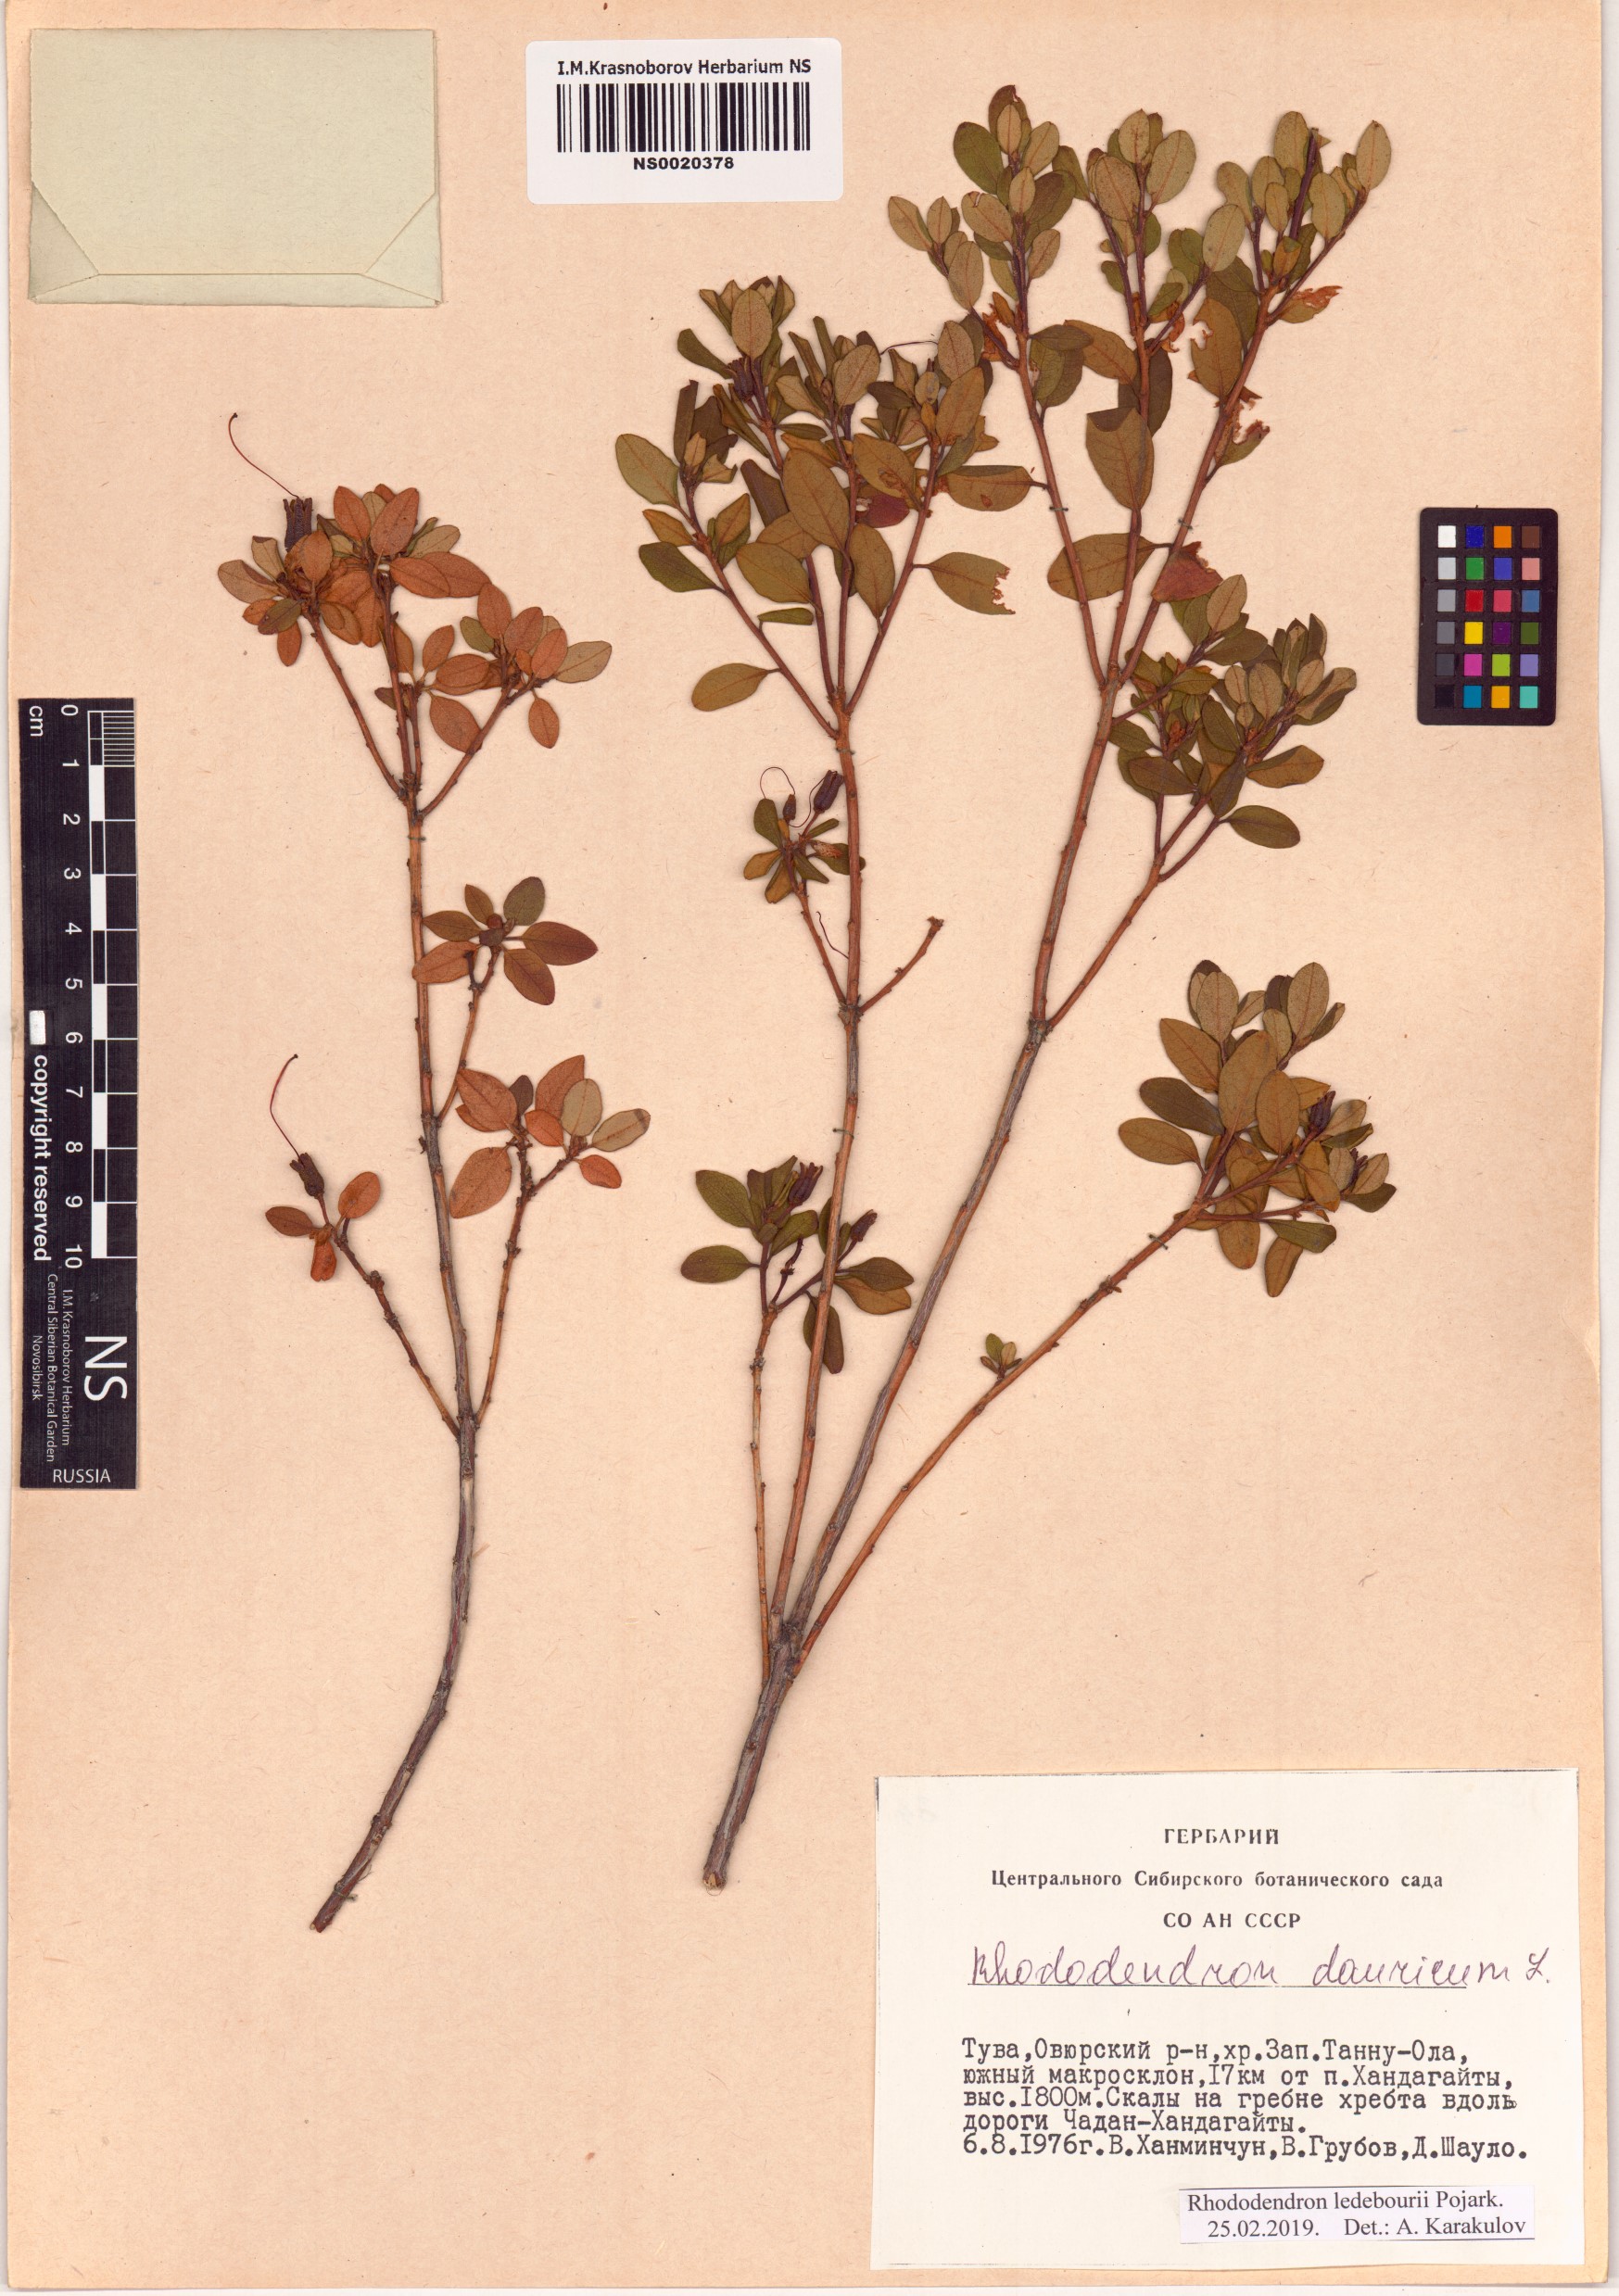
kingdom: Plantae
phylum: Tracheophyta
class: Magnoliopsida
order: Ericales
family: Ericaceae
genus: Rhododendron
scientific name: Rhododendron dauricum
